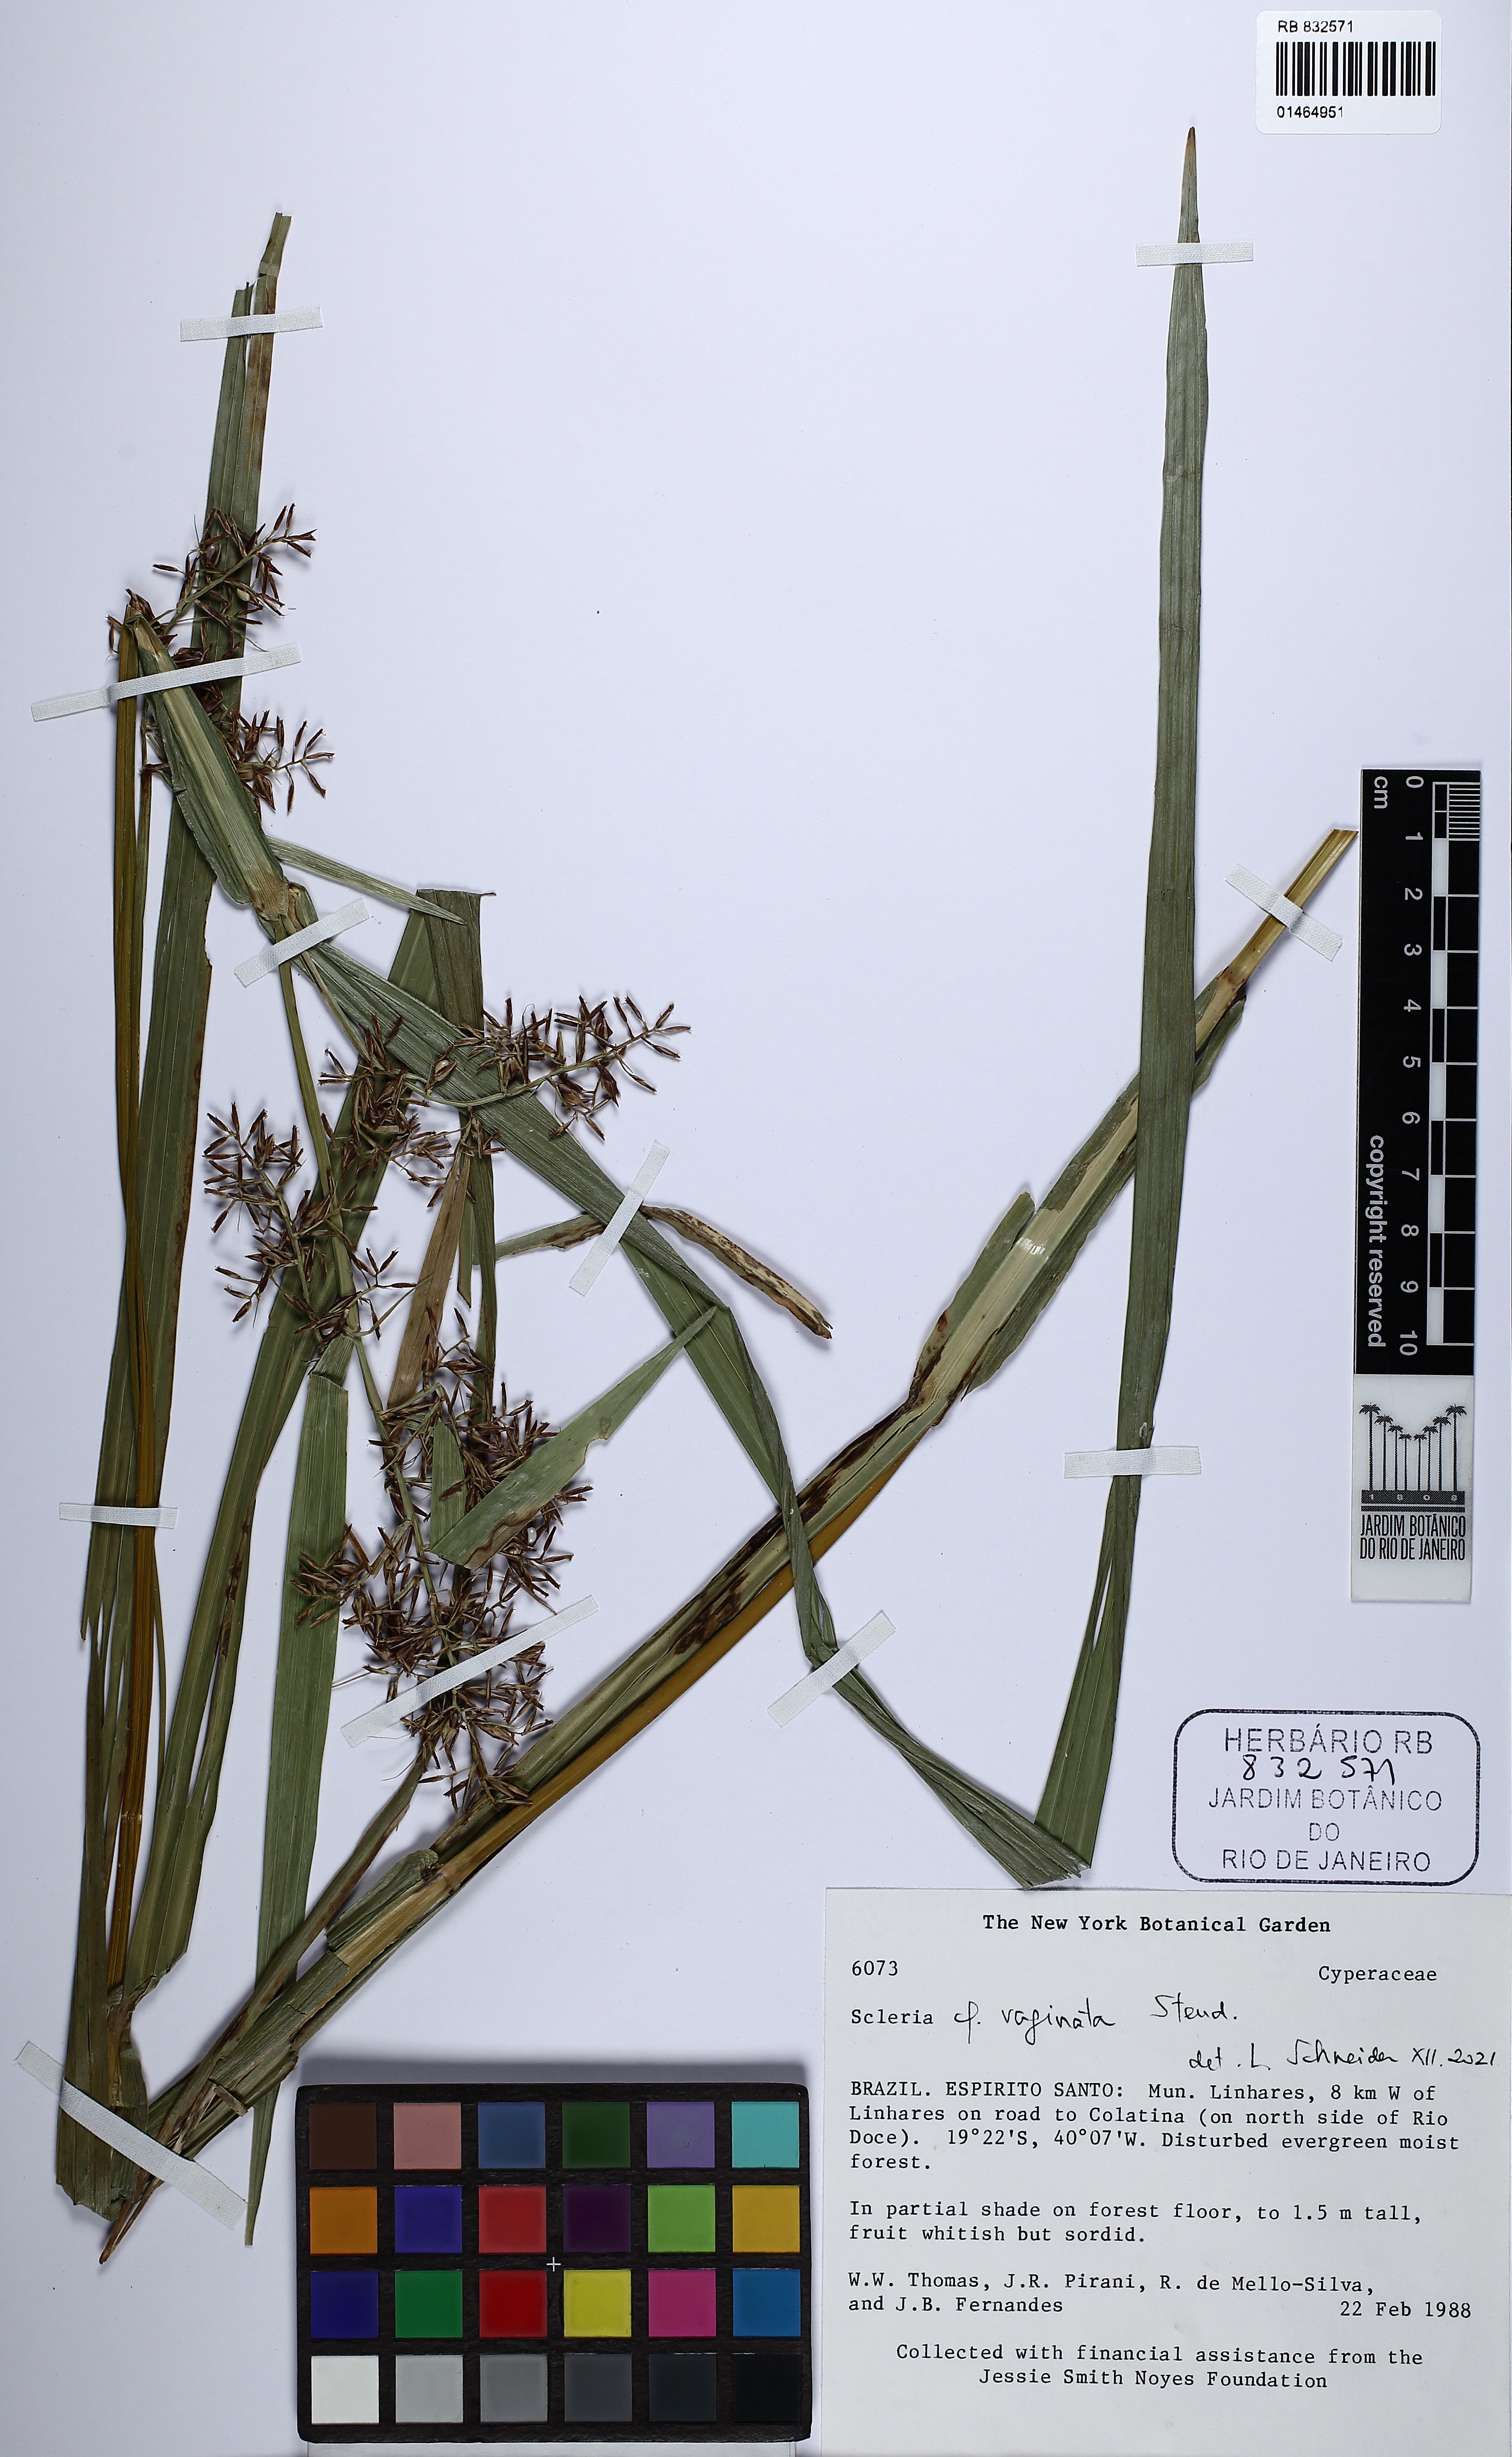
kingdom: Plantae
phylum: Tracheophyta
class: Liliopsida
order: Poales
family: Cyperaceae
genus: Scleria
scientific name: Scleria vaginata
